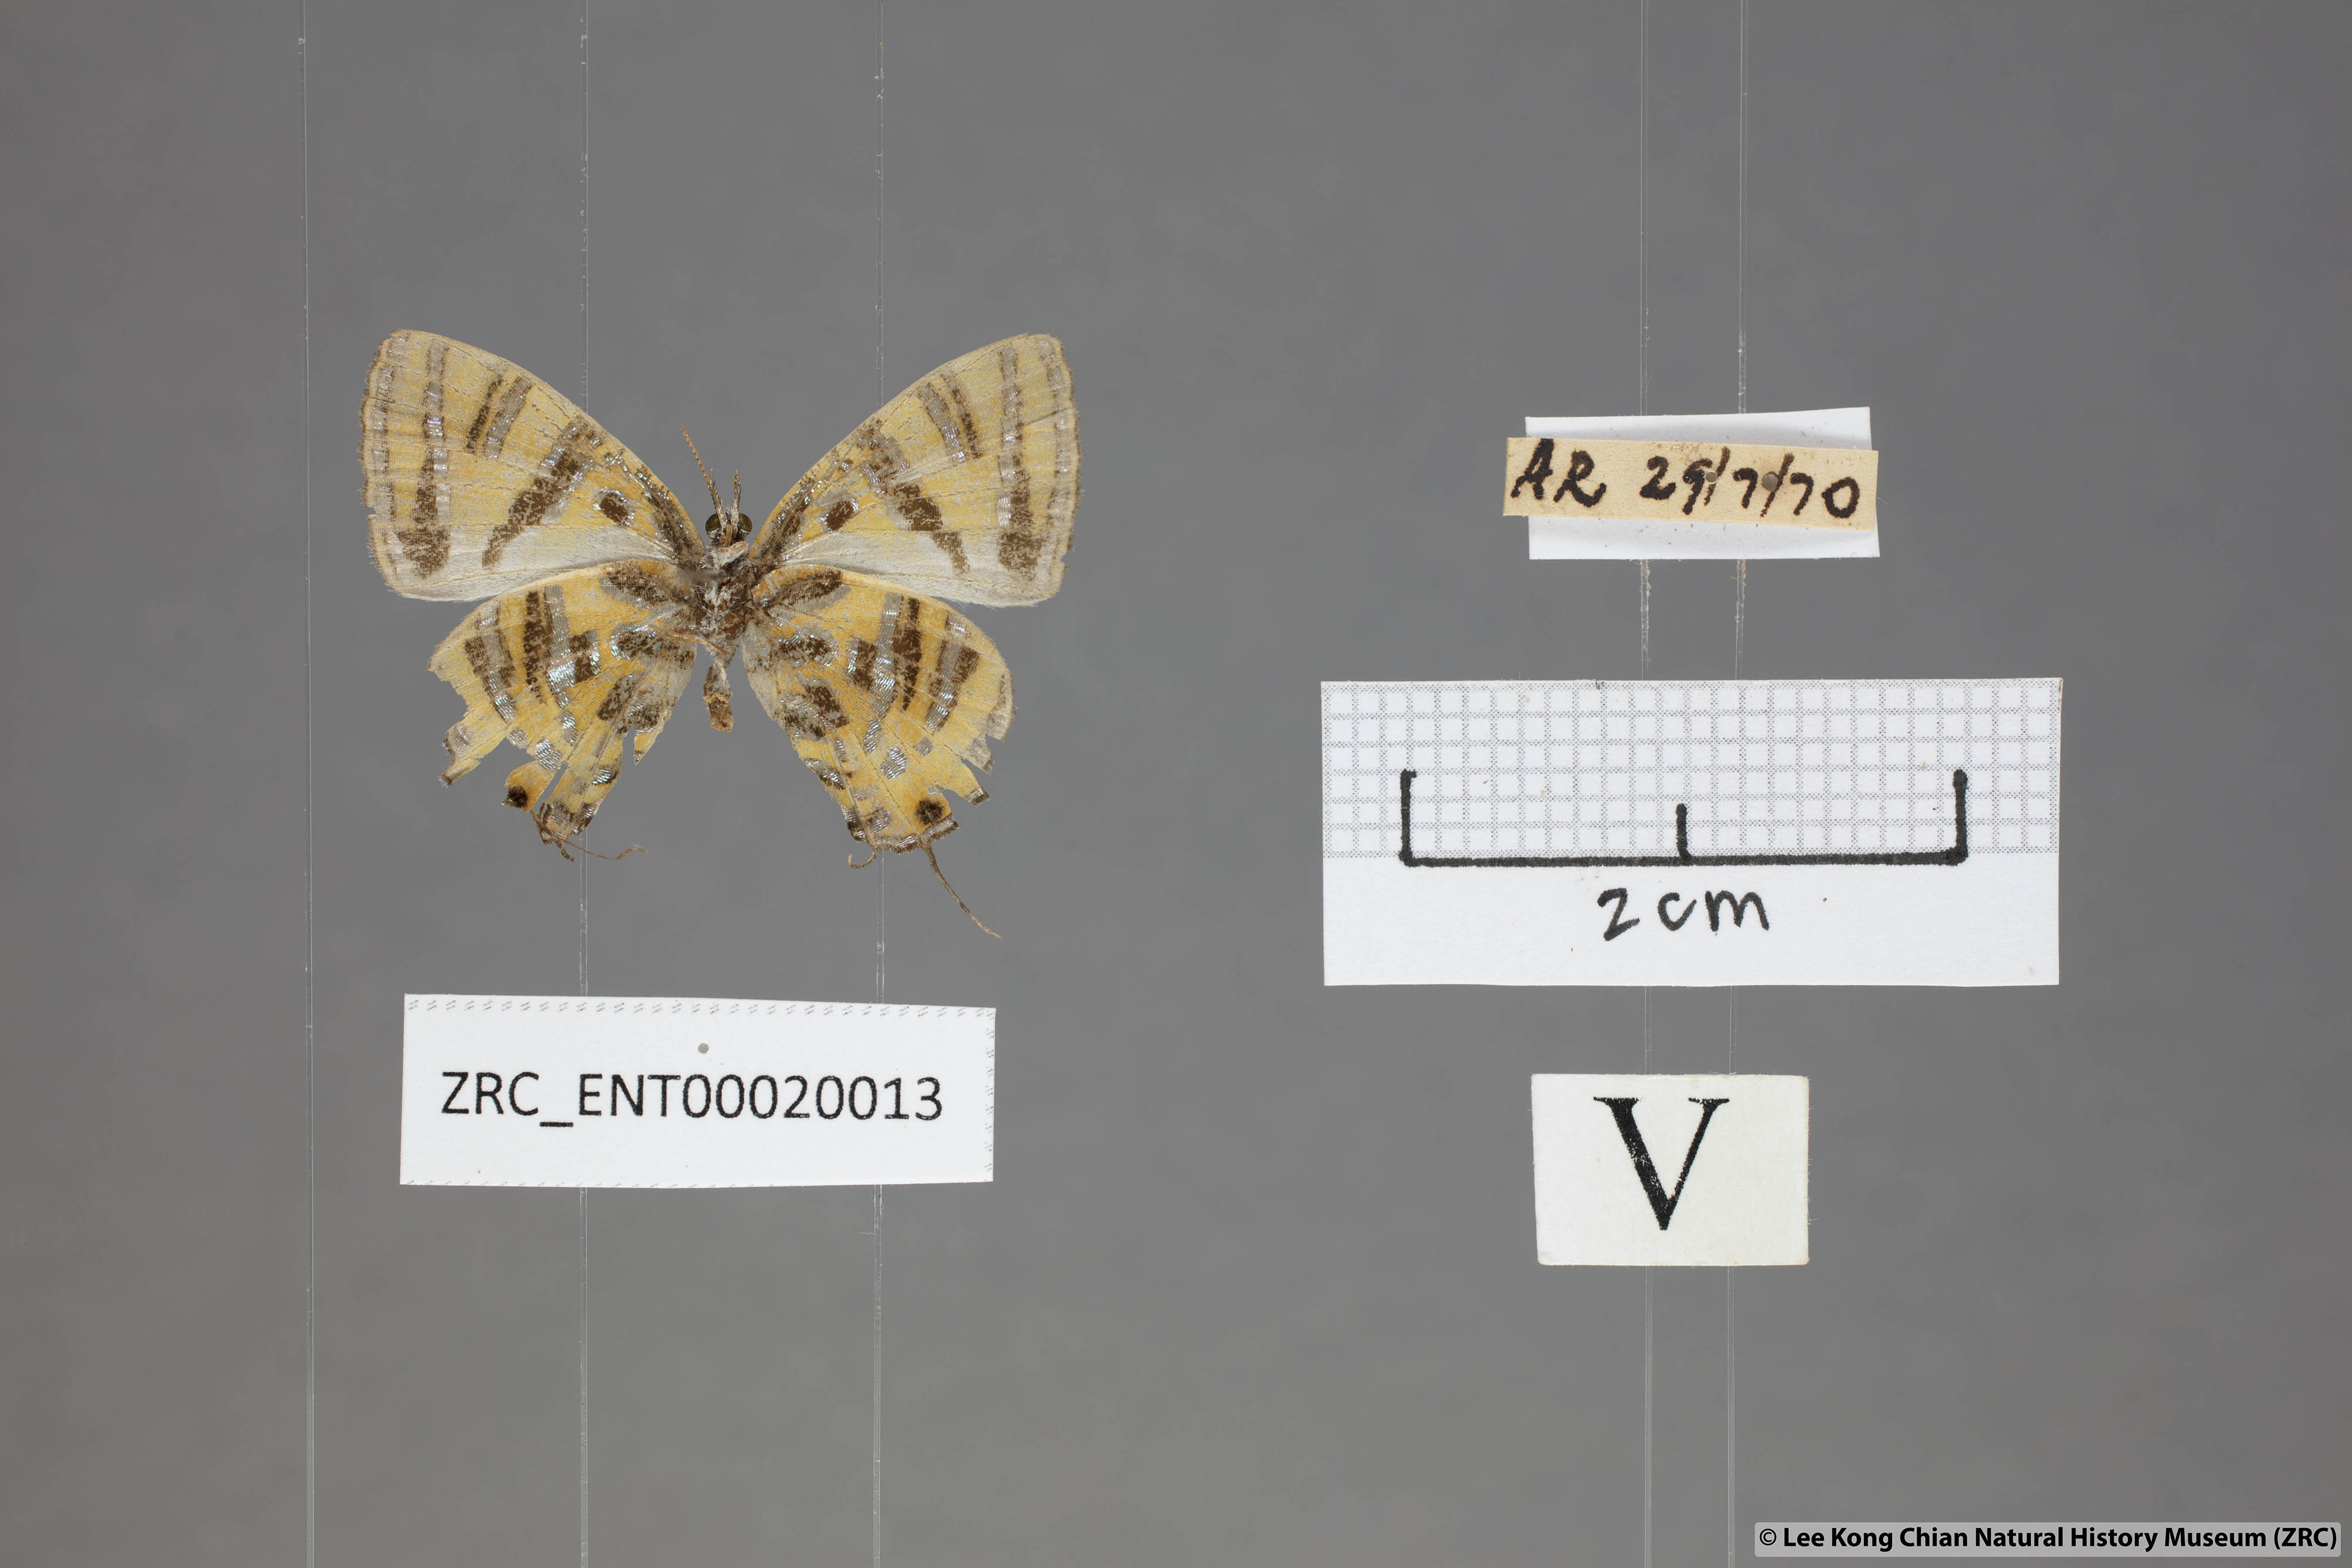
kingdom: Animalia
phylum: Arthropoda
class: Insecta
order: Lepidoptera
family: Lycaenidae
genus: Catapaecilma
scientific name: Catapaecilma subochrea
